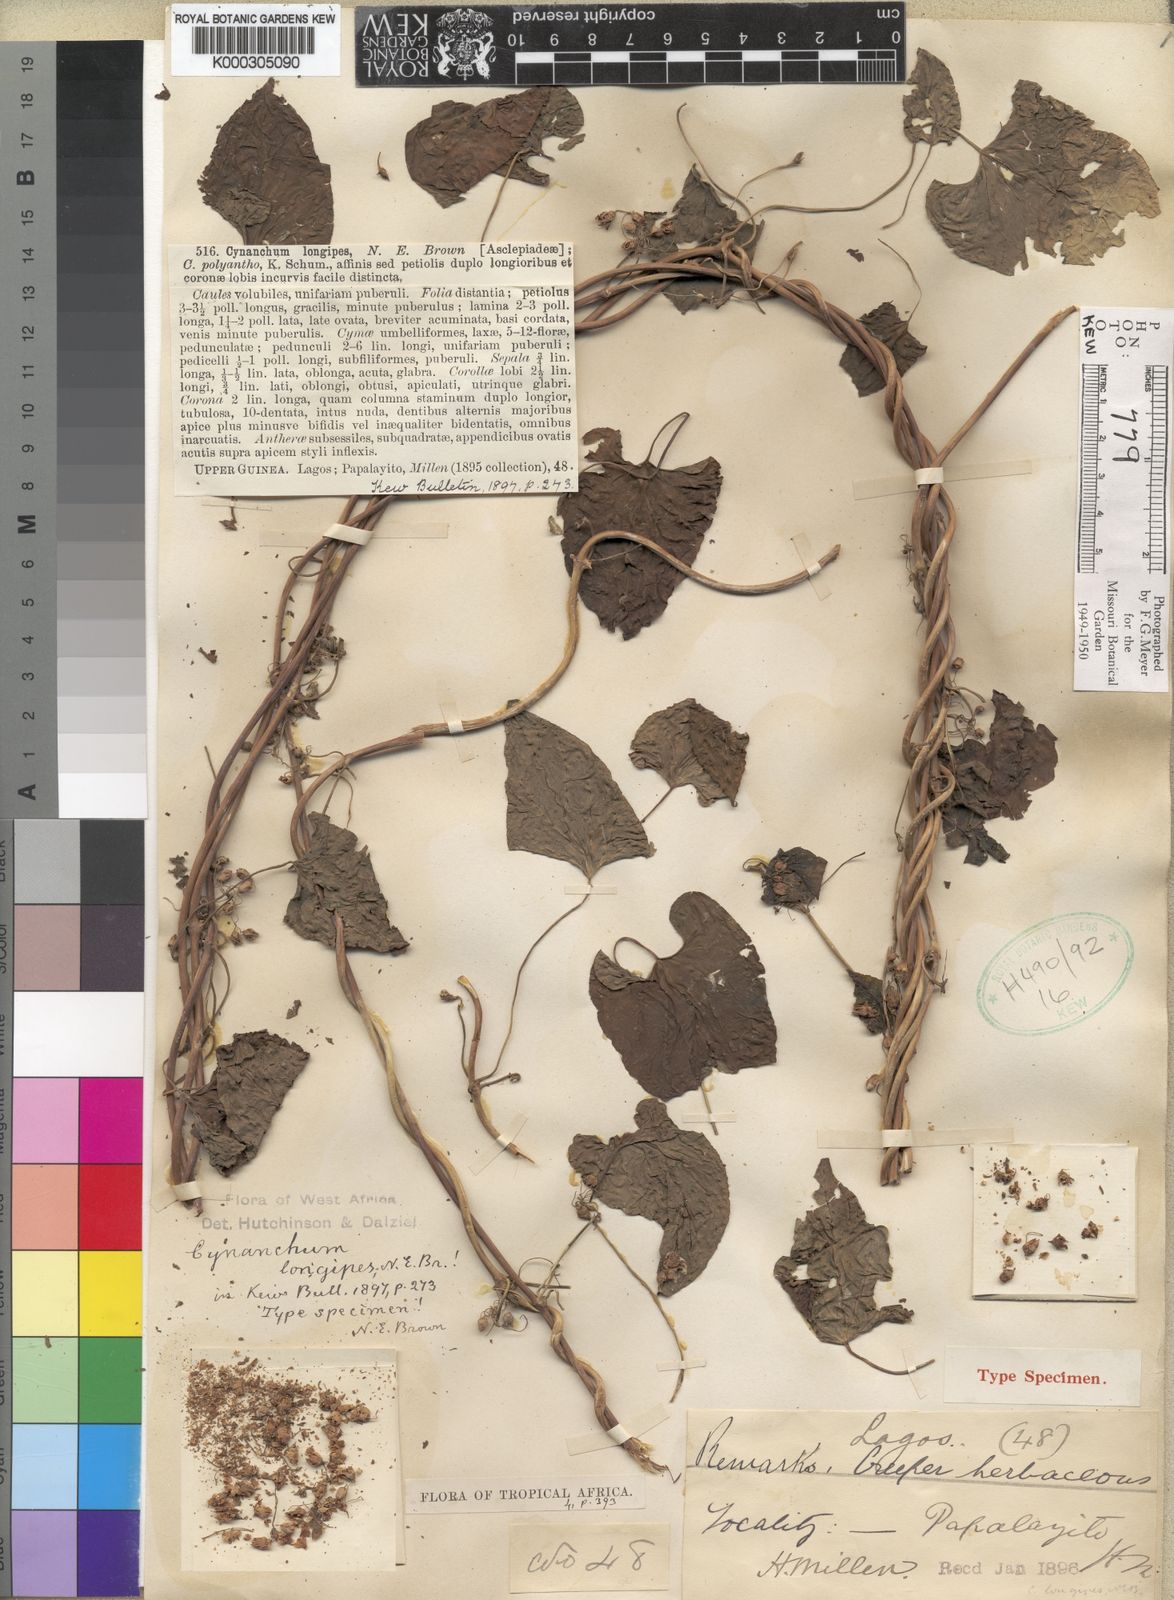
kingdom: Plantae
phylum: Tracheophyta
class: Magnoliopsida
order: Gentianales
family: Apocynaceae
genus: Cynanchum
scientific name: Cynanchum longipes
